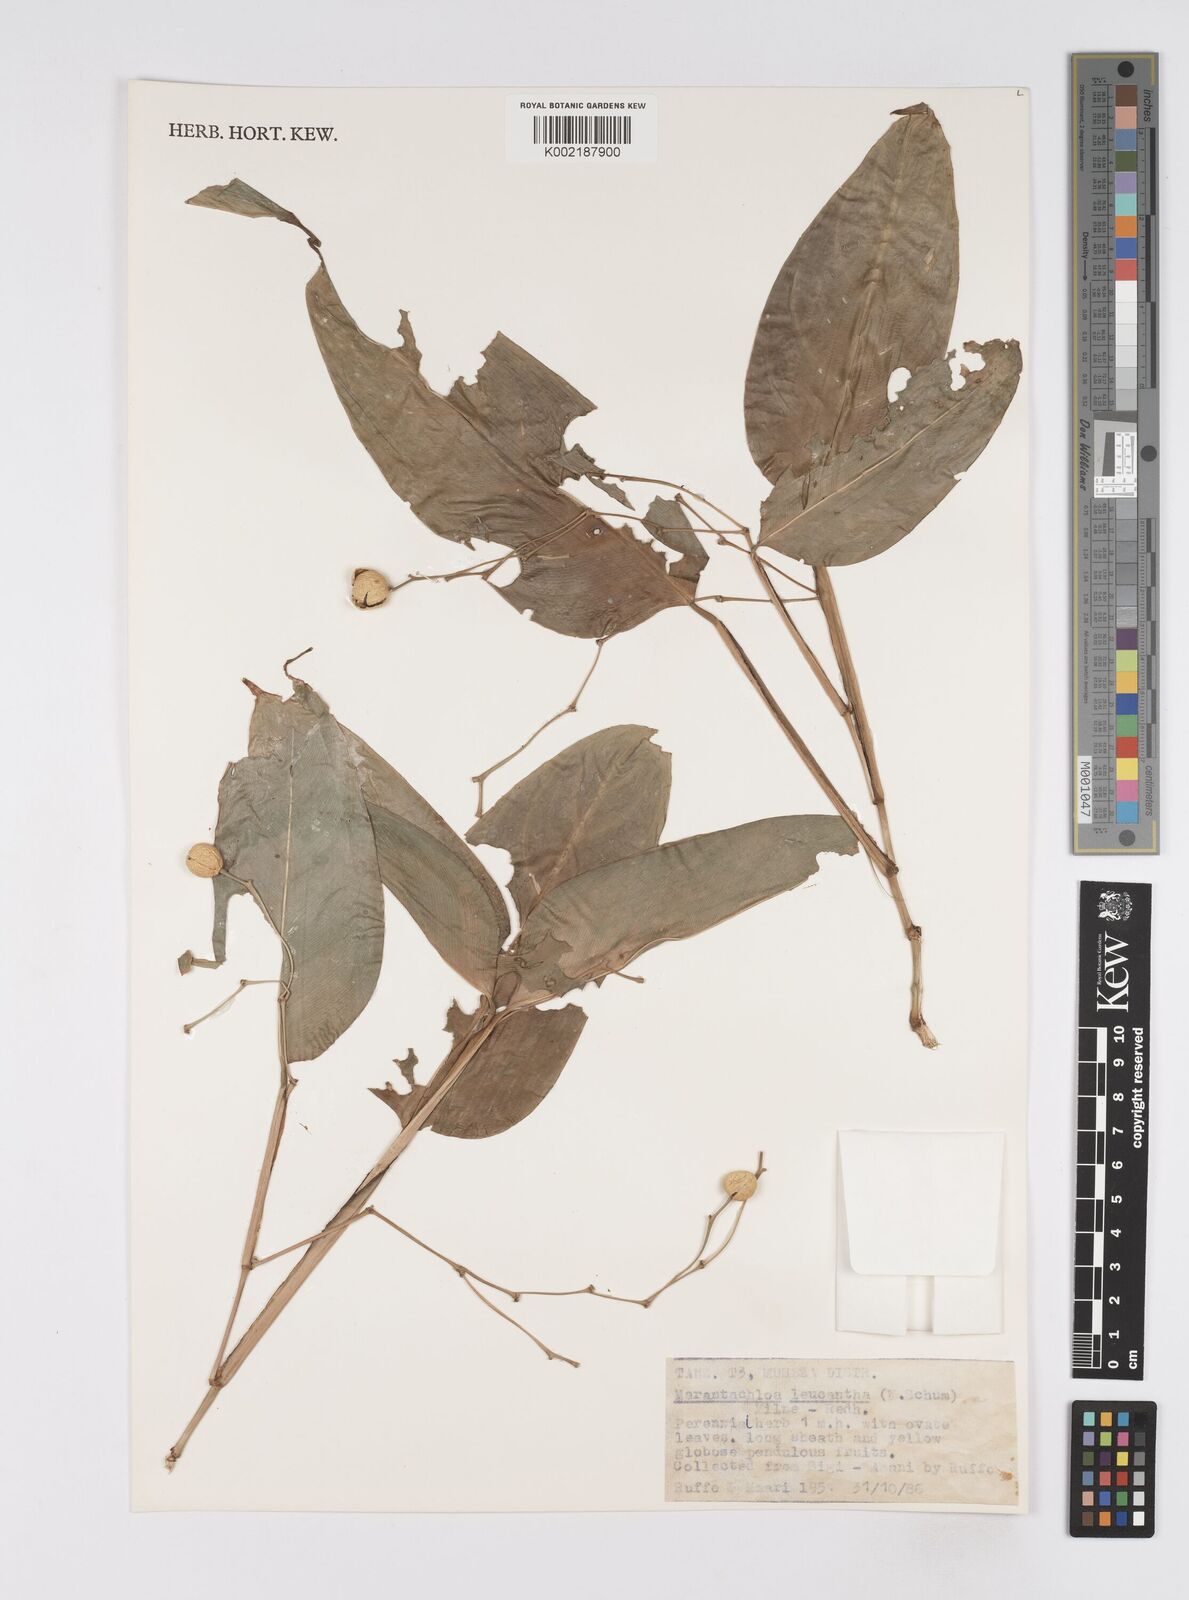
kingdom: Plantae
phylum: Tracheophyta
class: Liliopsida
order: Zingiberales
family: Marantaceae
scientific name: Marantaceae
